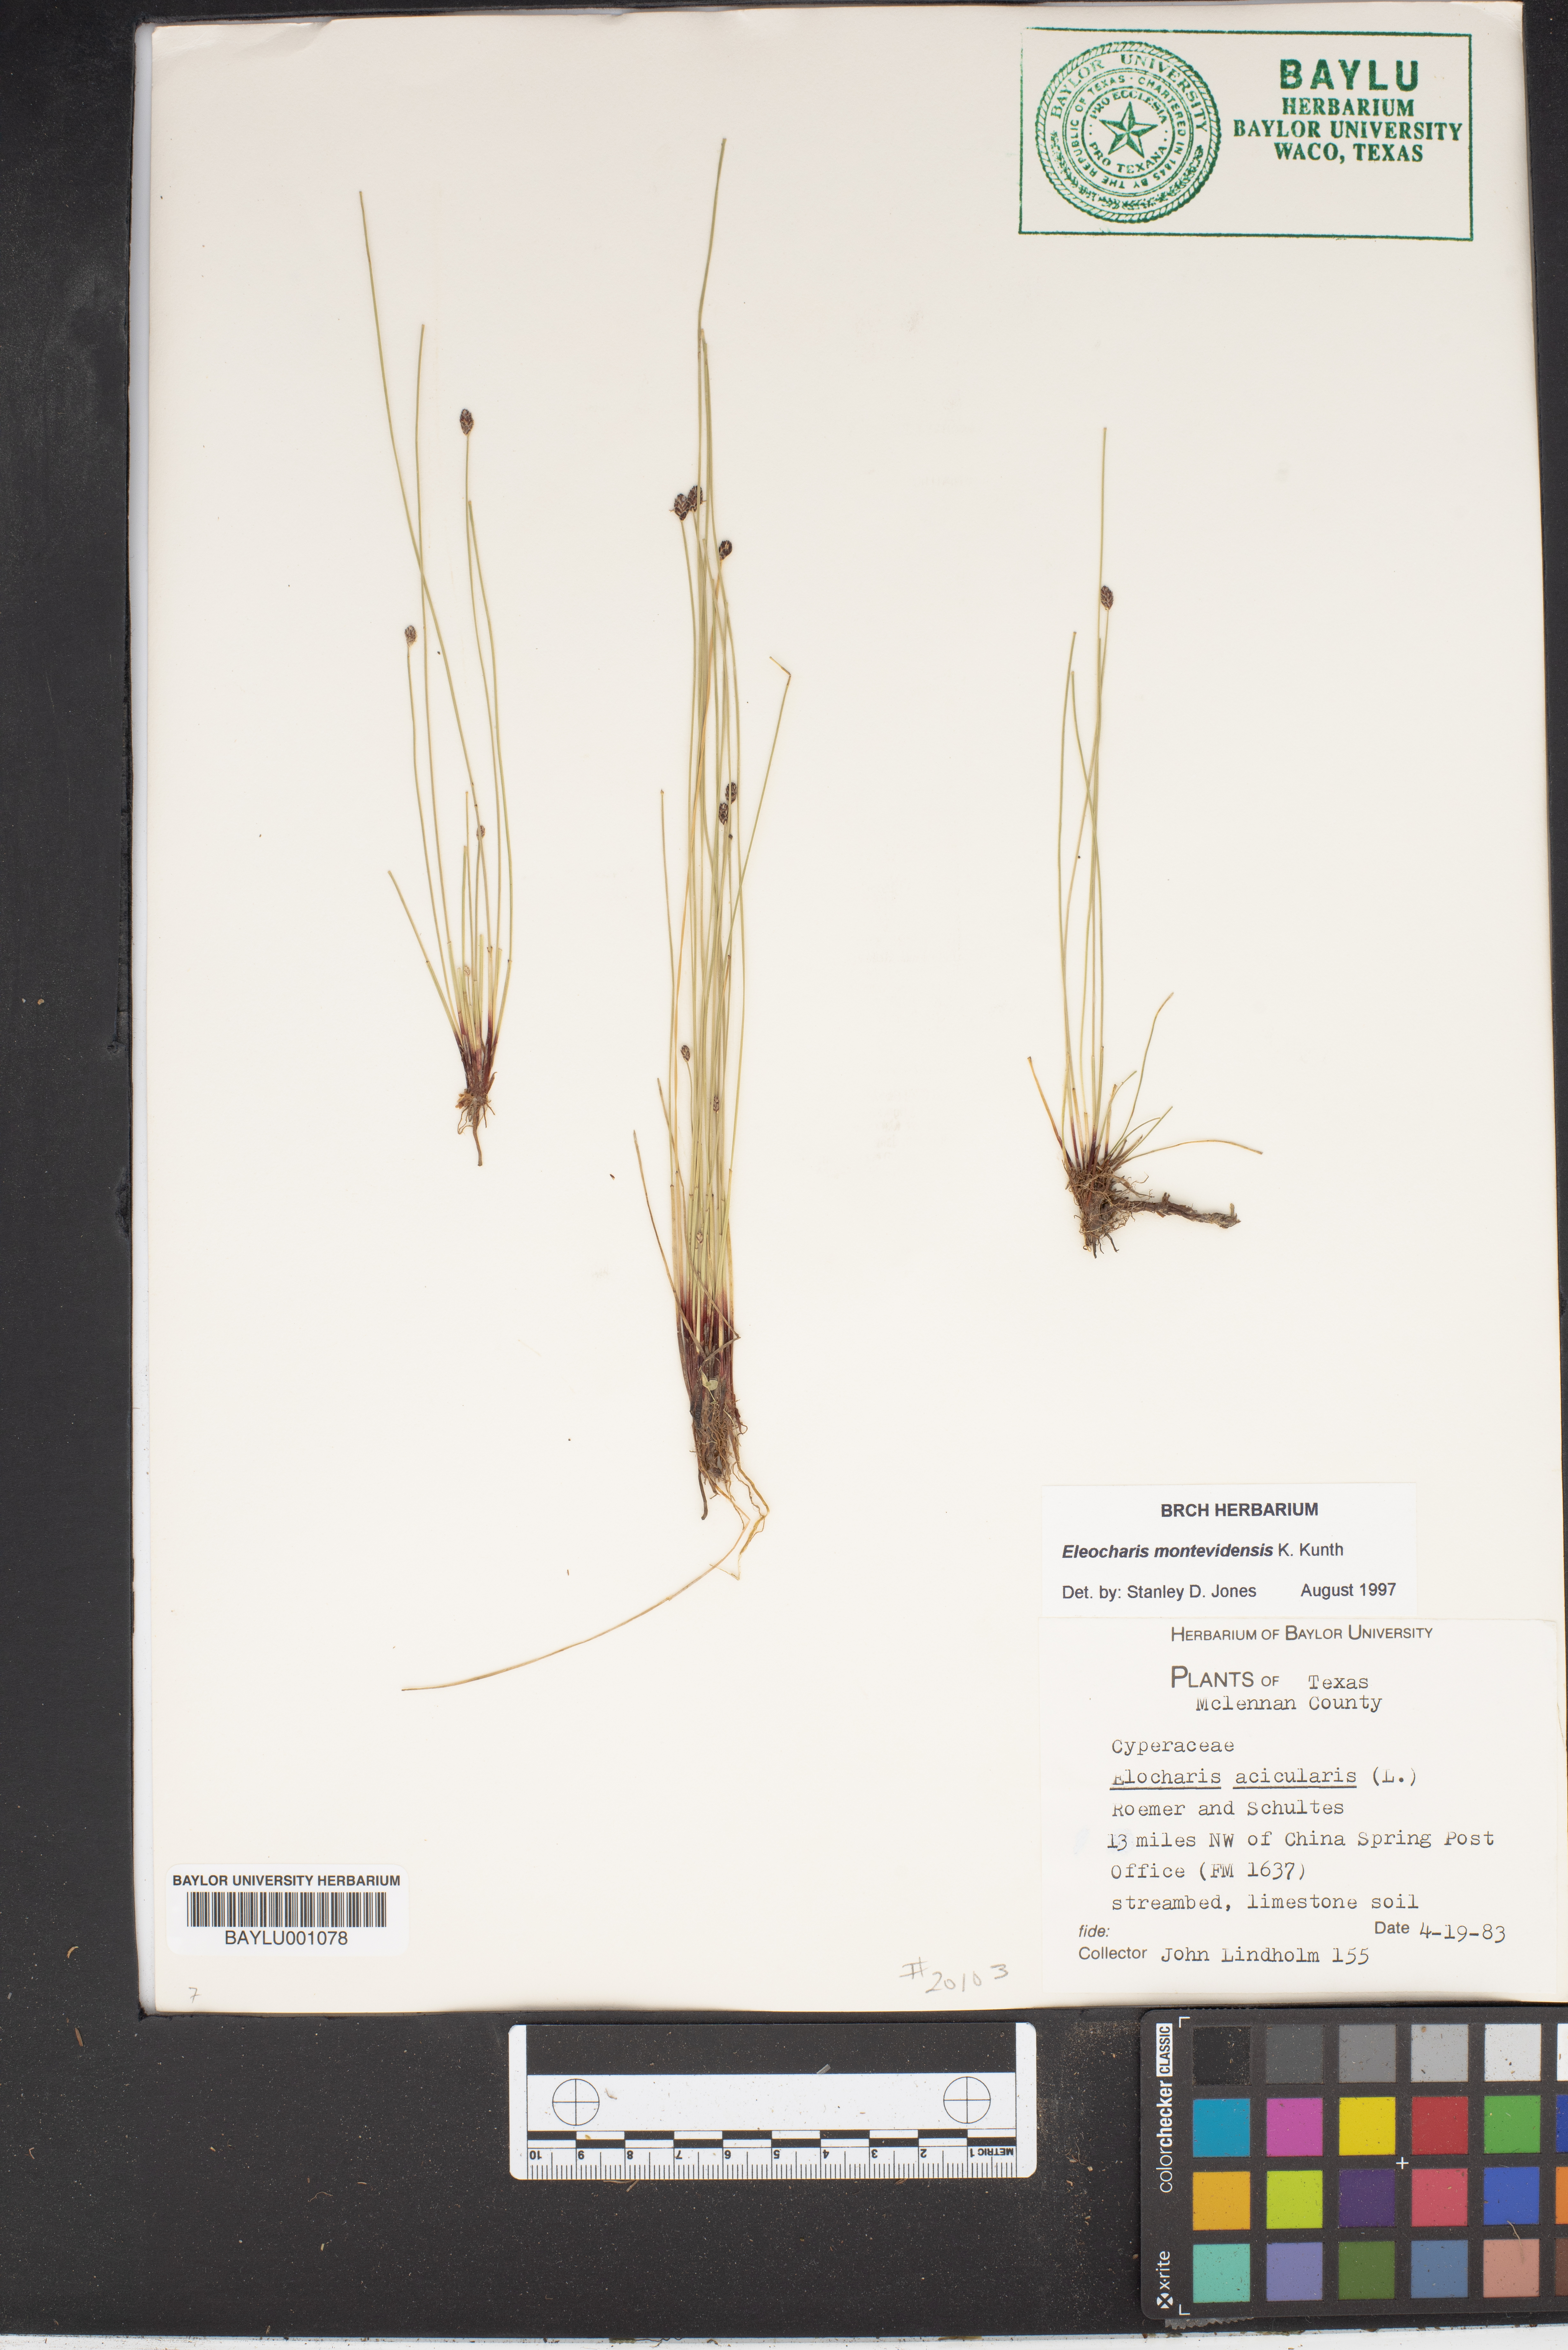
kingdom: Plantae
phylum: Tracheophyta
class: Liliopsida
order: Poales
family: Cyperaceae
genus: Eleocharis
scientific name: Eleocharis acicularis
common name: Needle spike-rush
